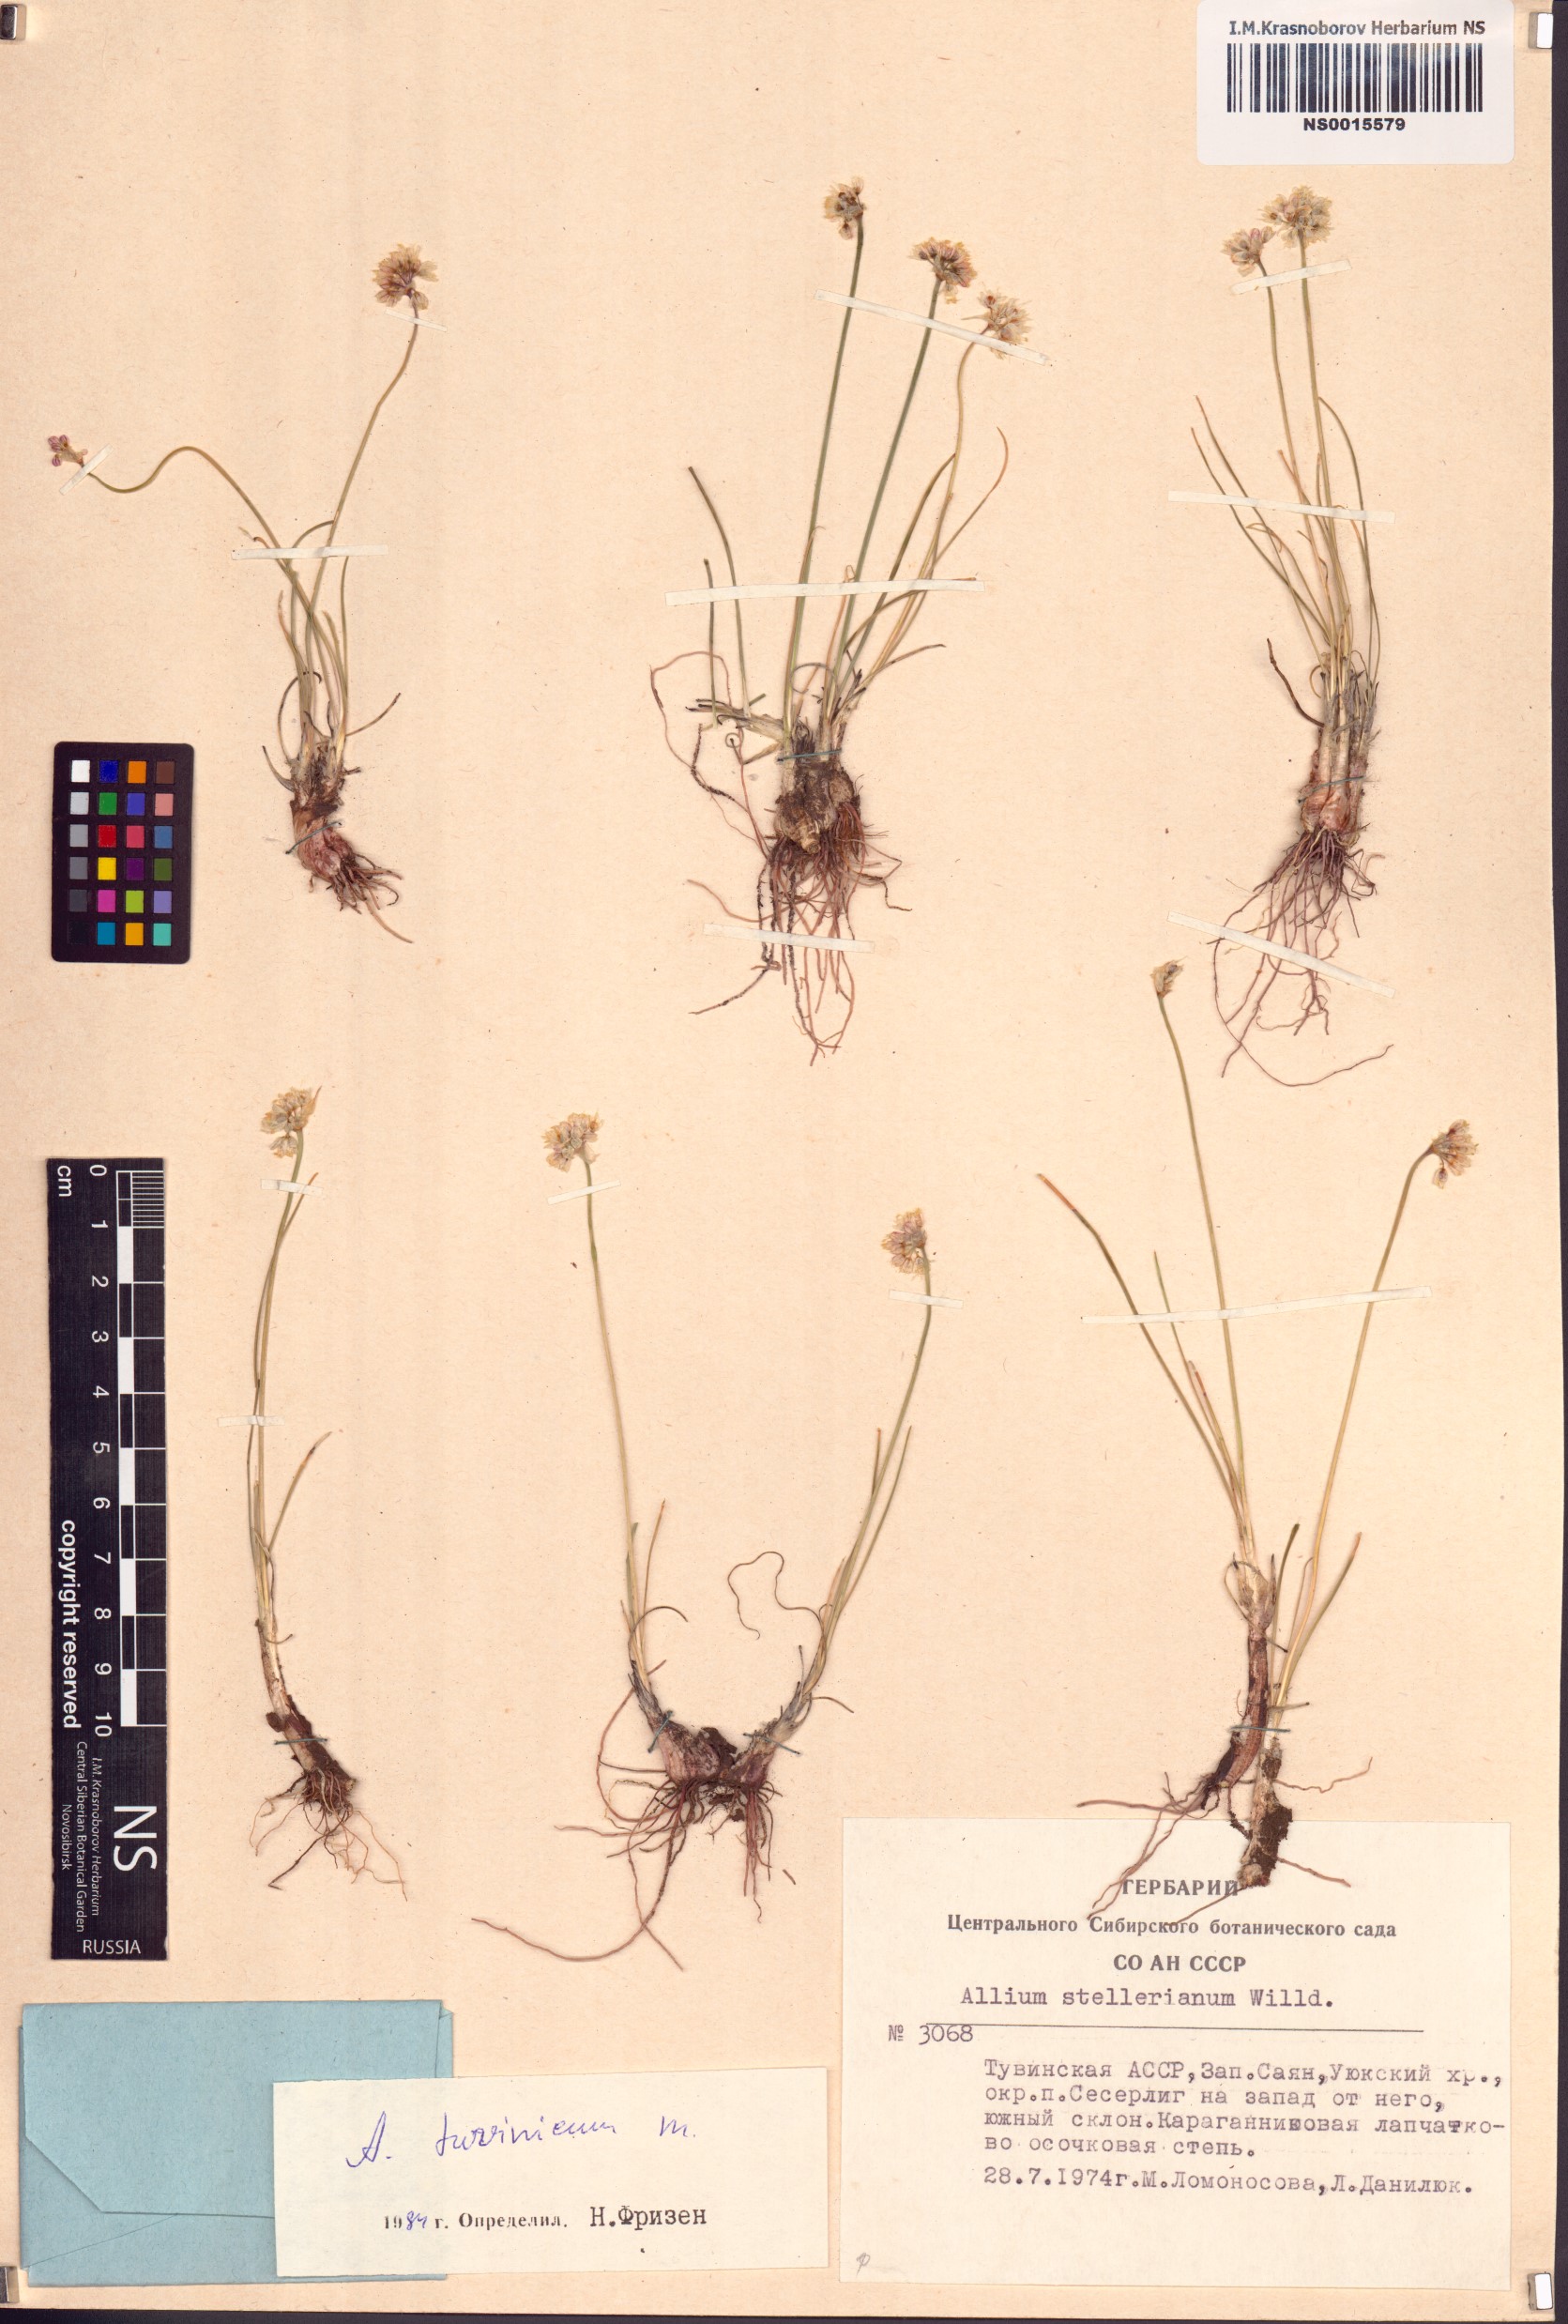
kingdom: Plantae
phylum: Tracheophyta
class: Liliopsida
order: Asparagales
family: Amaryllidaceae
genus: Allium
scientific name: Allium tuvinicum
